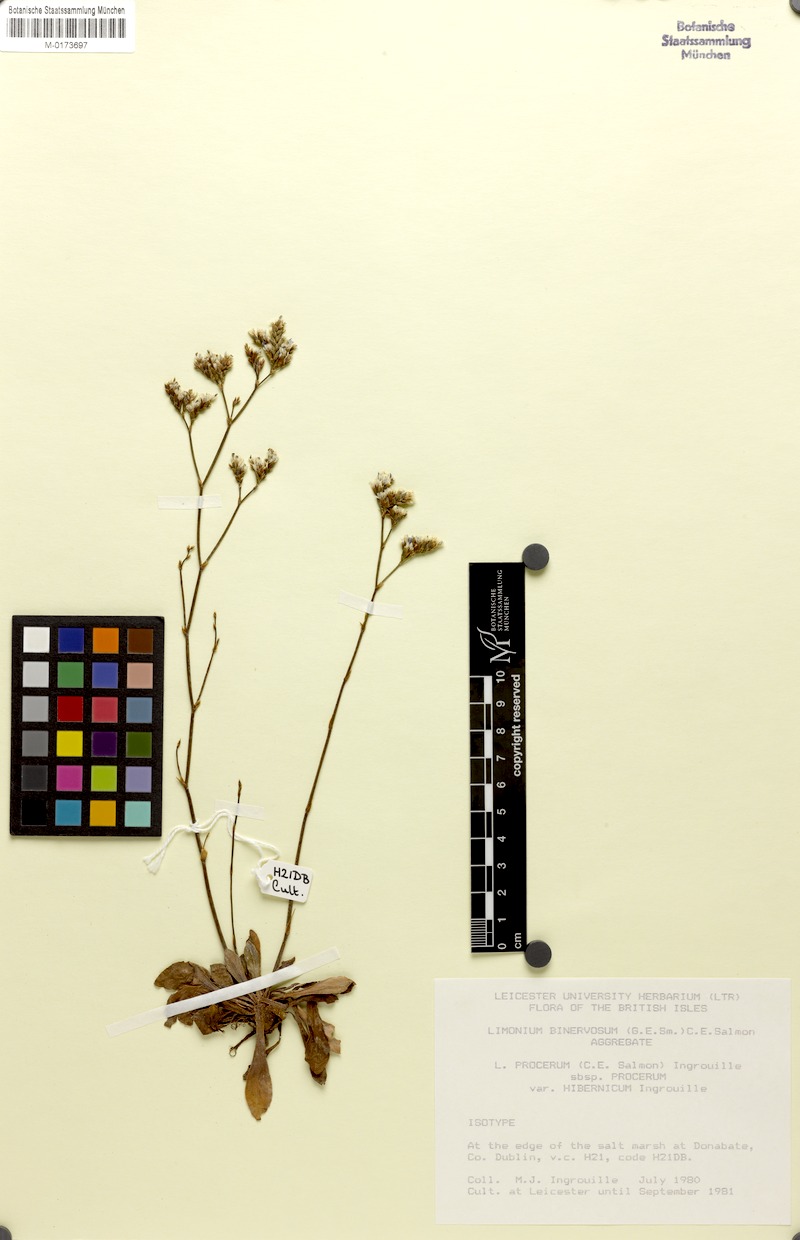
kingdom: Plantae
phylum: Tracheophyta
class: Magnoliopsida
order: Caryophyllales
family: Plumbaginaceae
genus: Limonium
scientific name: Limonium procerum
